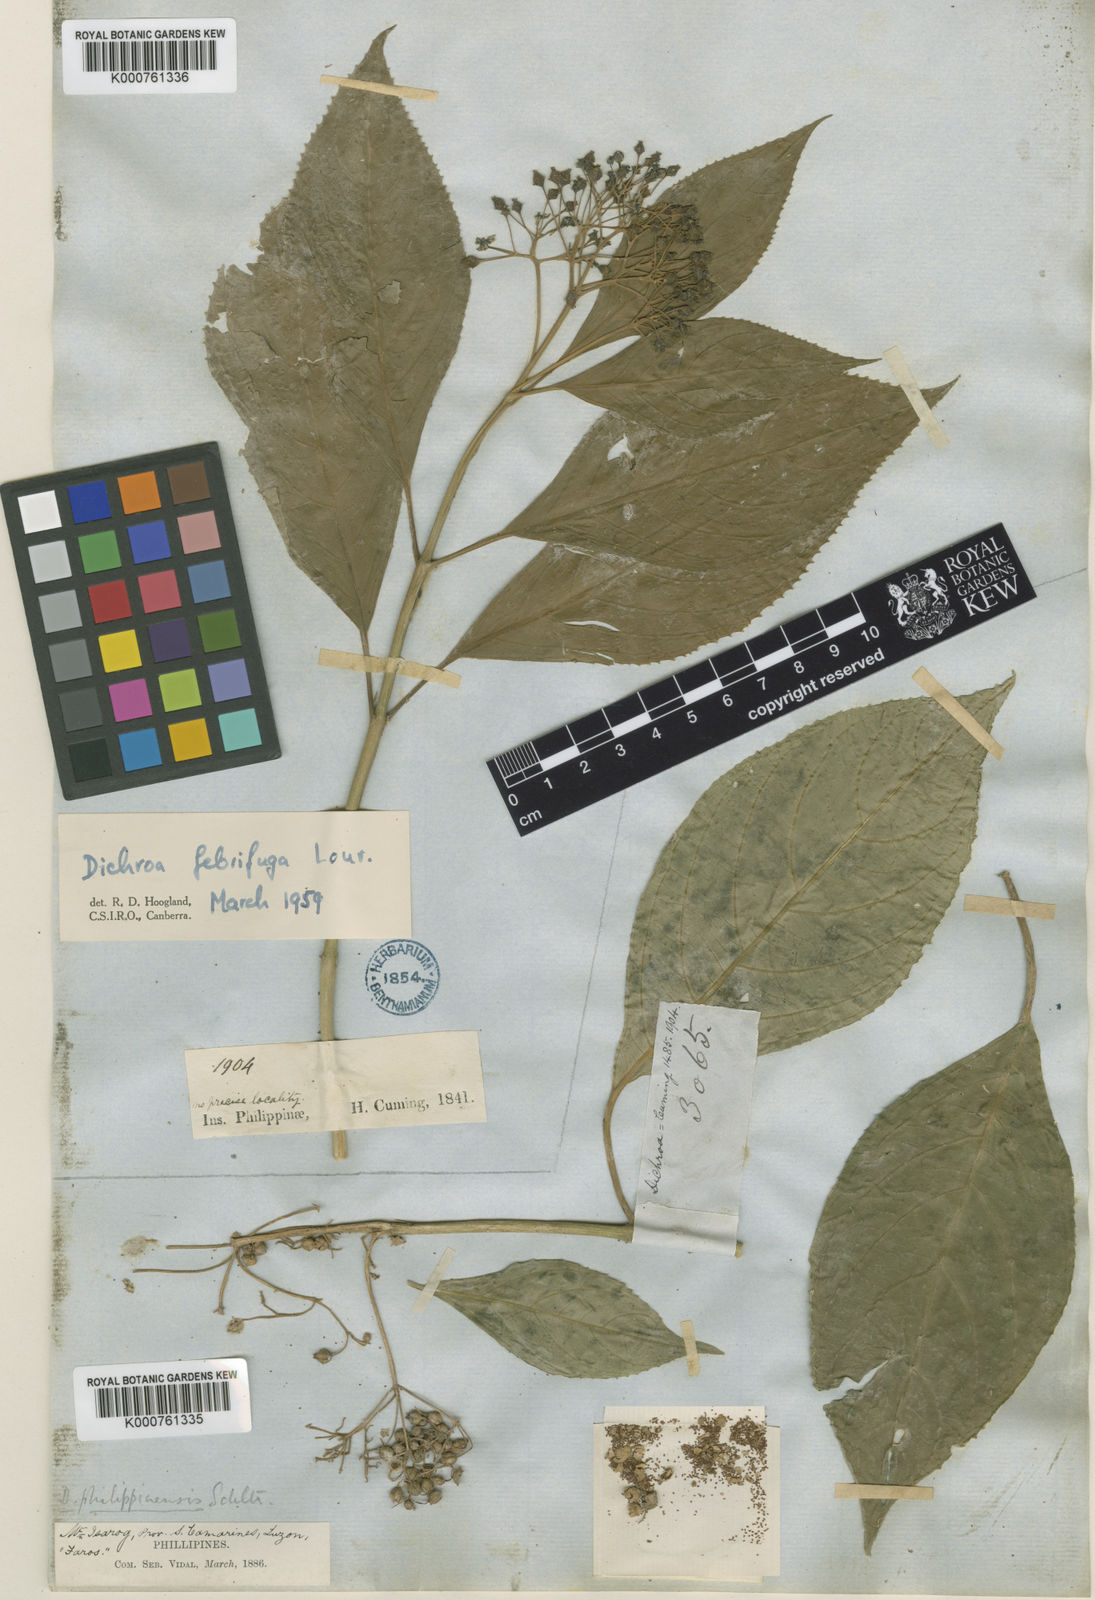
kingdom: Plantae
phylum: Tracheophyta
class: Magnoliopsida
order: Cornales
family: Hydrangeaceae
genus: Hydrangea
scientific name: Hydrangea febrifuga
